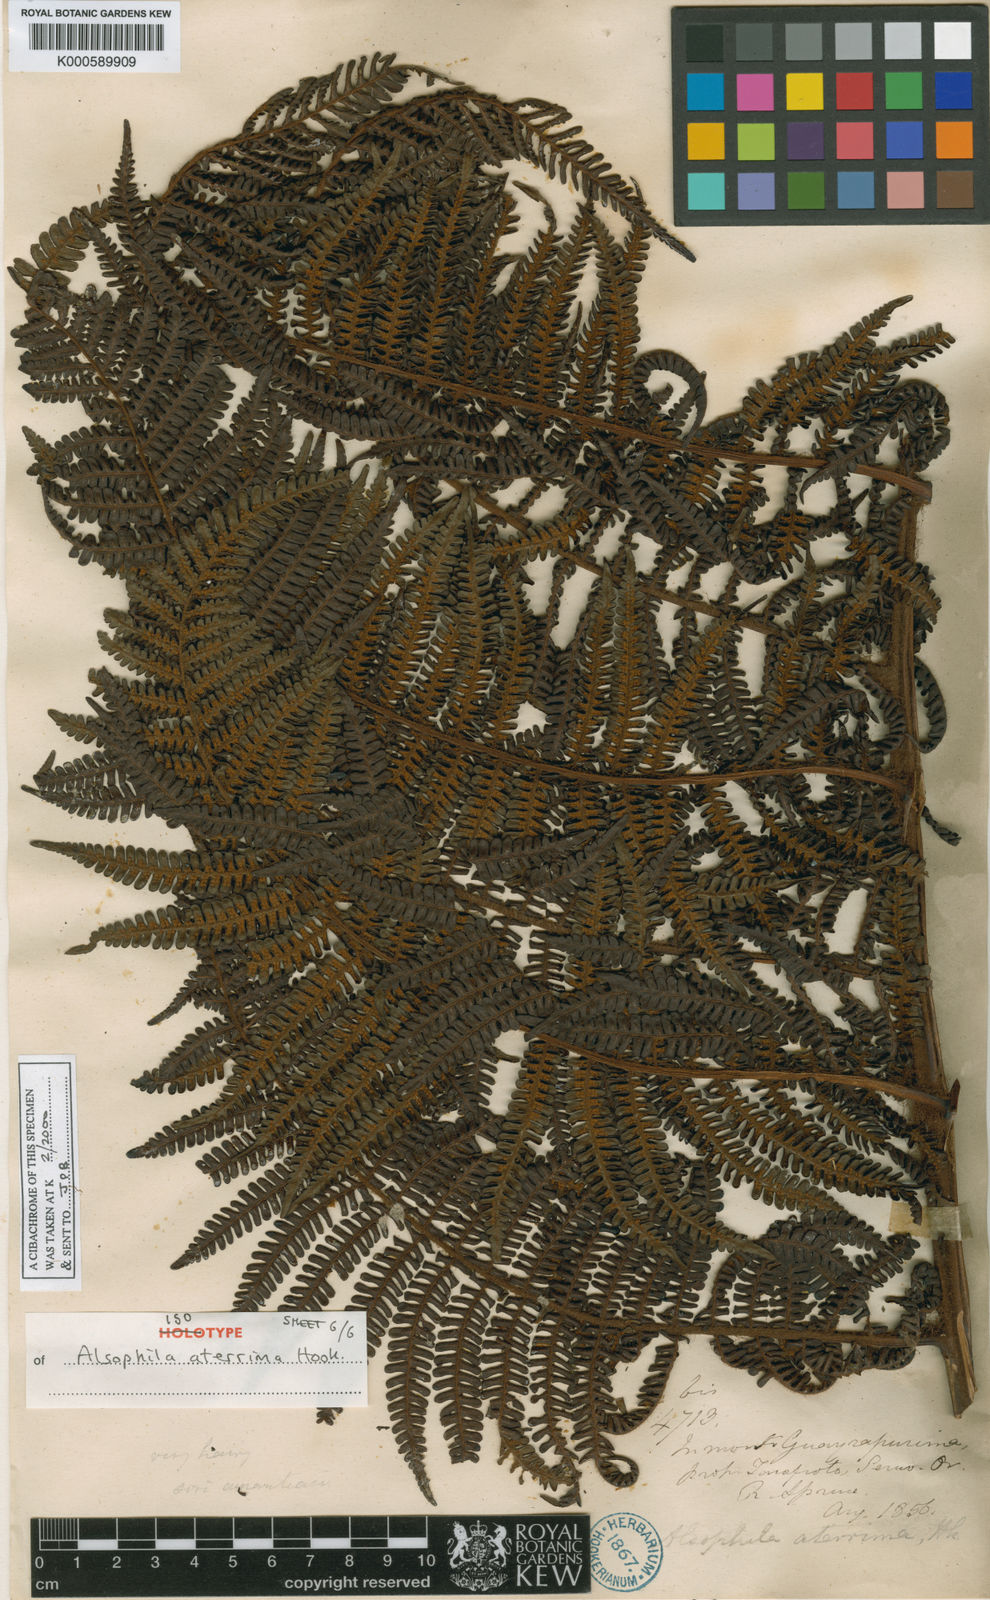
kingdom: Plantae
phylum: Tracheophyta
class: Polypodiopsida
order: Cyatheales
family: Cyatheaceae
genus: Cyathea
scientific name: Cyathea aterrima
